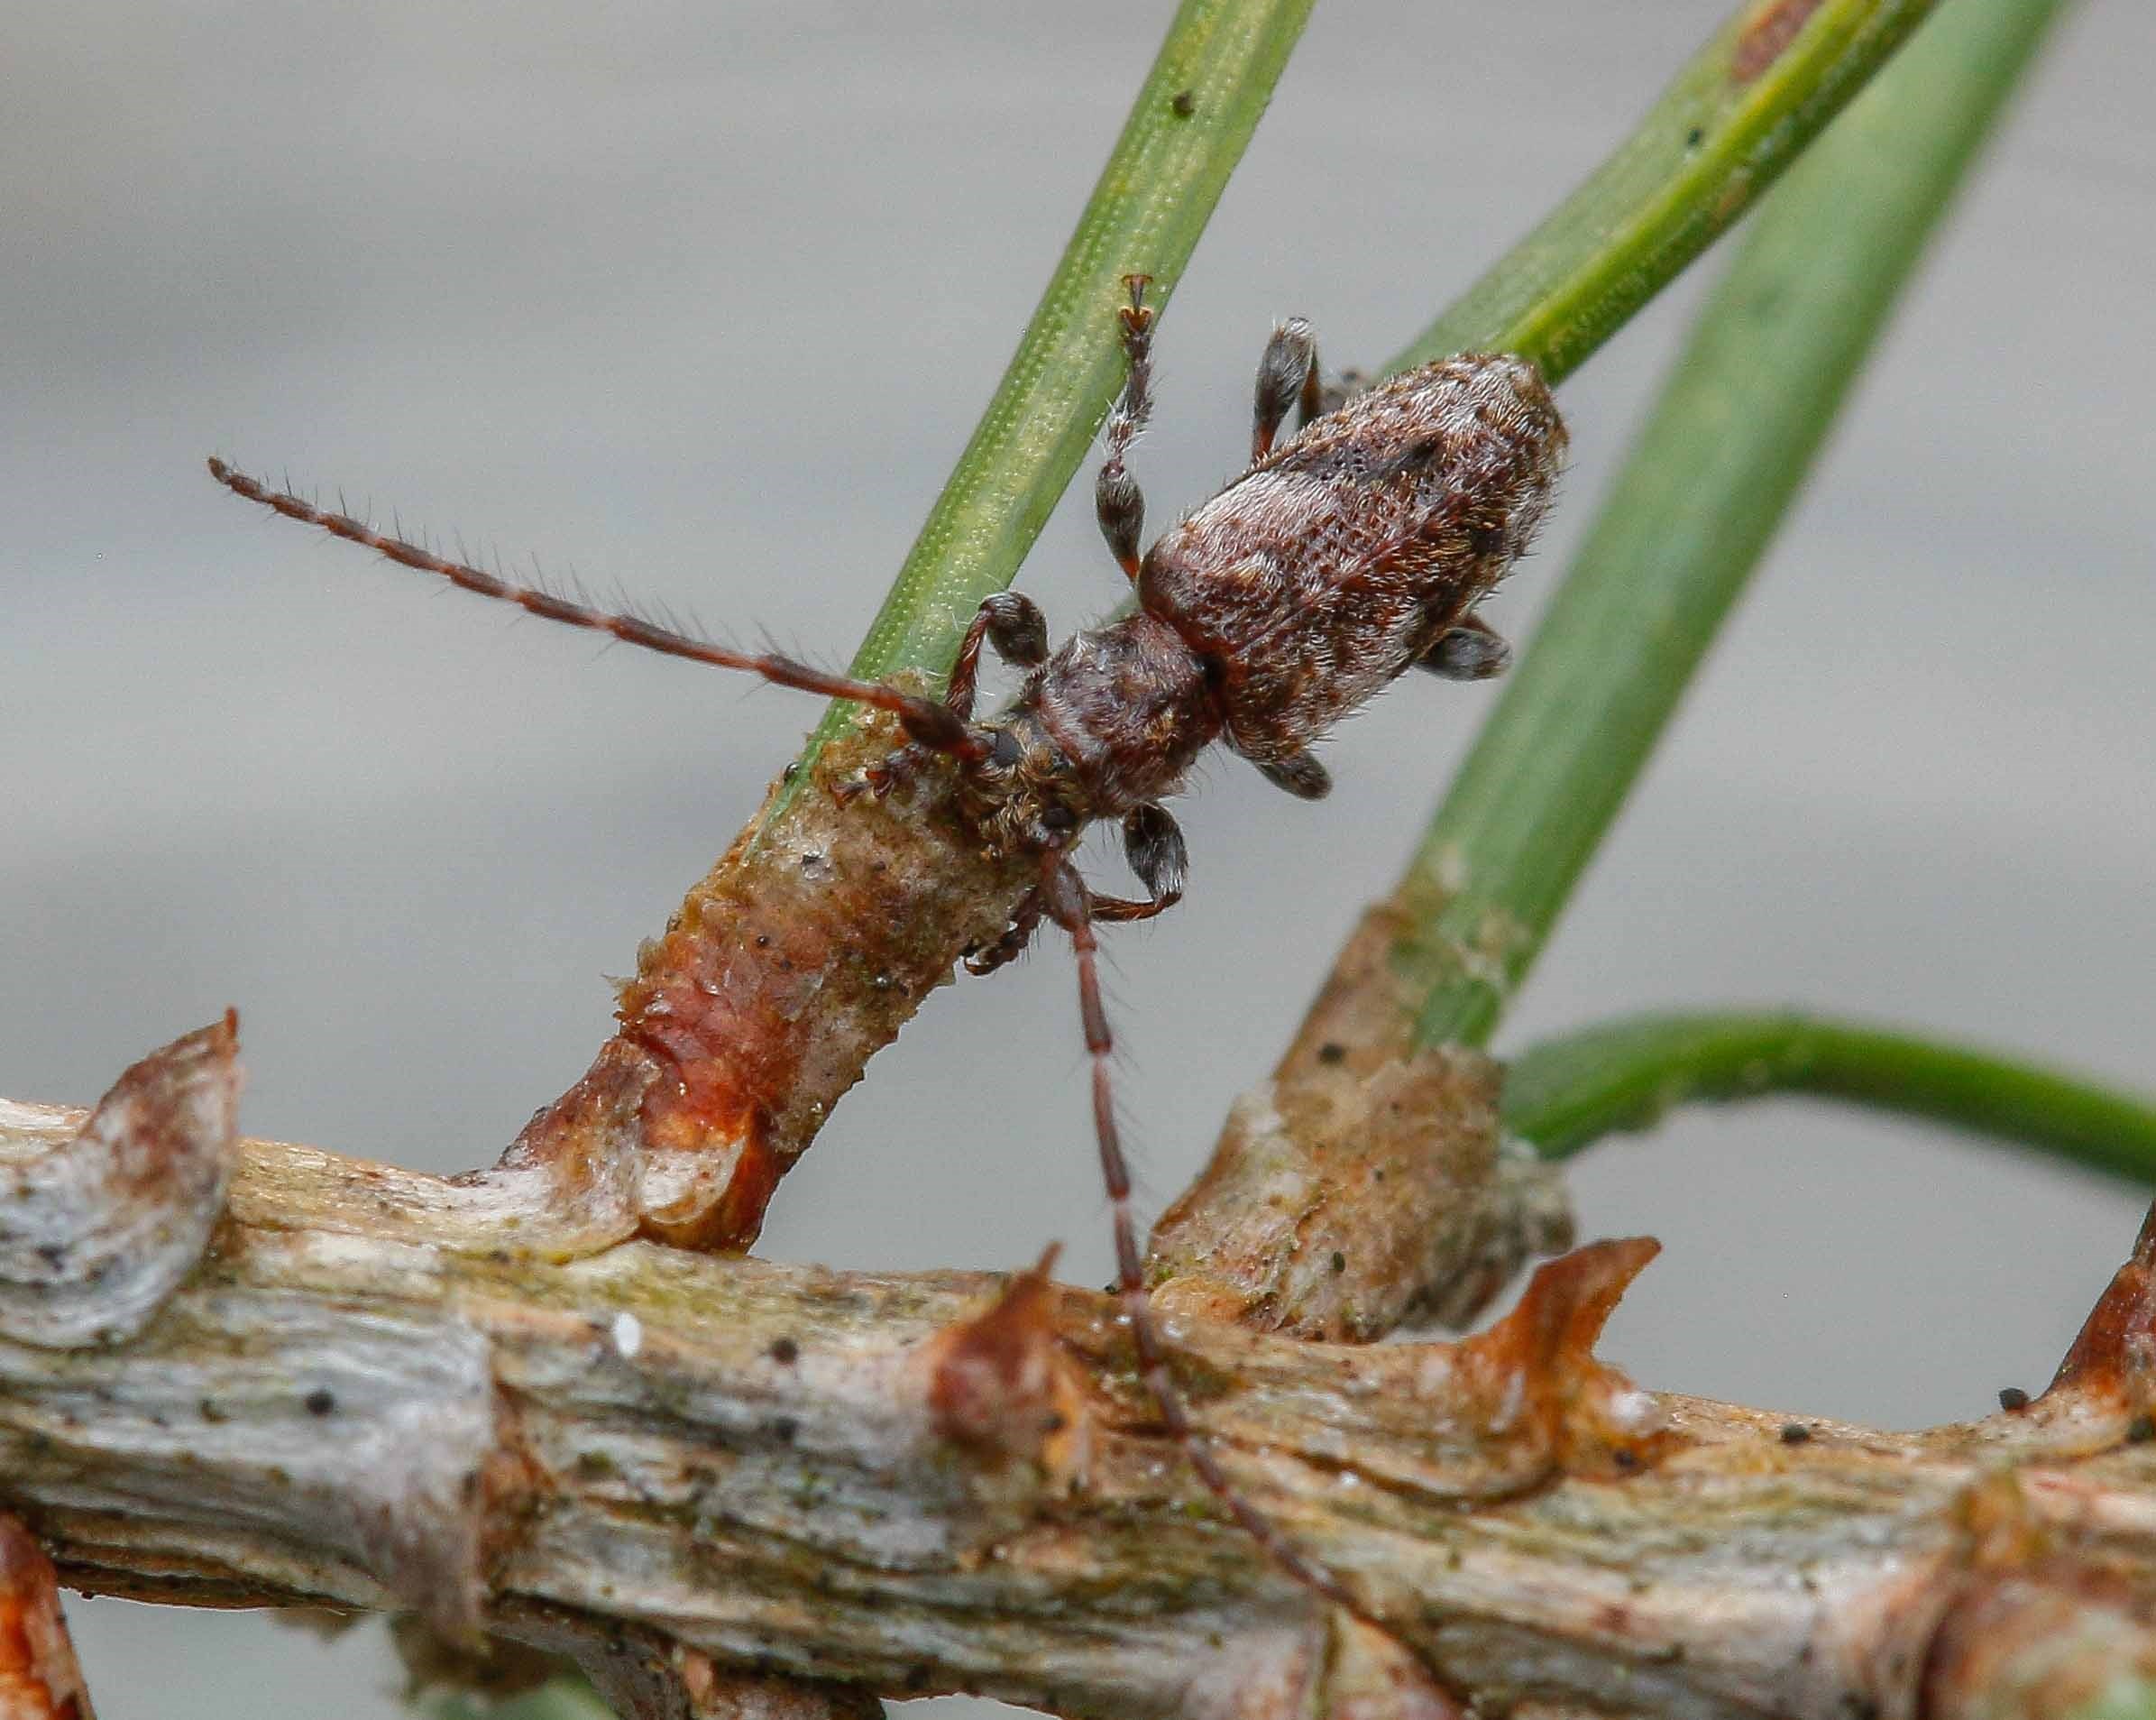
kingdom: Animalia
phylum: Arthropoda
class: Insecta
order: Coleoptera
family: Cerambycidae
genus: Pogonocherus
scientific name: Pogonocherus decoratus
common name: Fyrregråbuk
